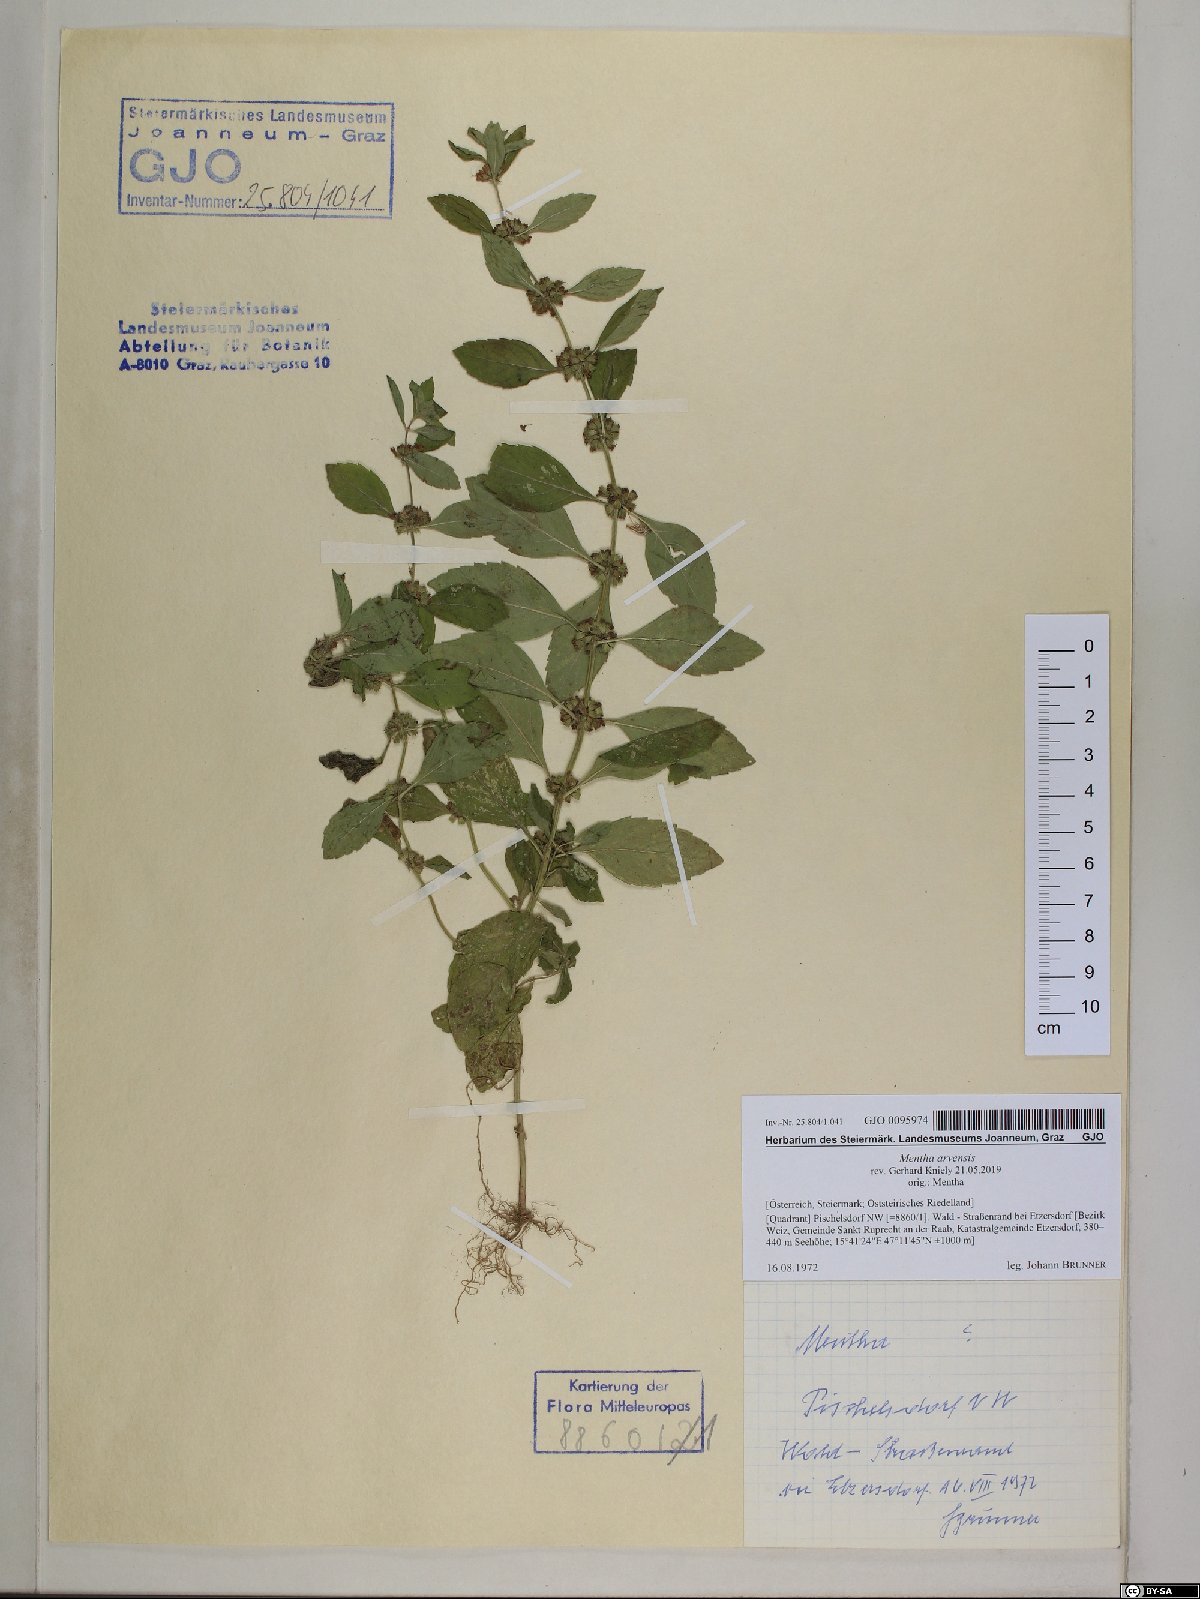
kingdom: Plantae
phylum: Tracheophyta
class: Magnoliopsida
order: Lamiales
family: Lamiaceae
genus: Mentha
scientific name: Mentha arvensis
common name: Corn mint
